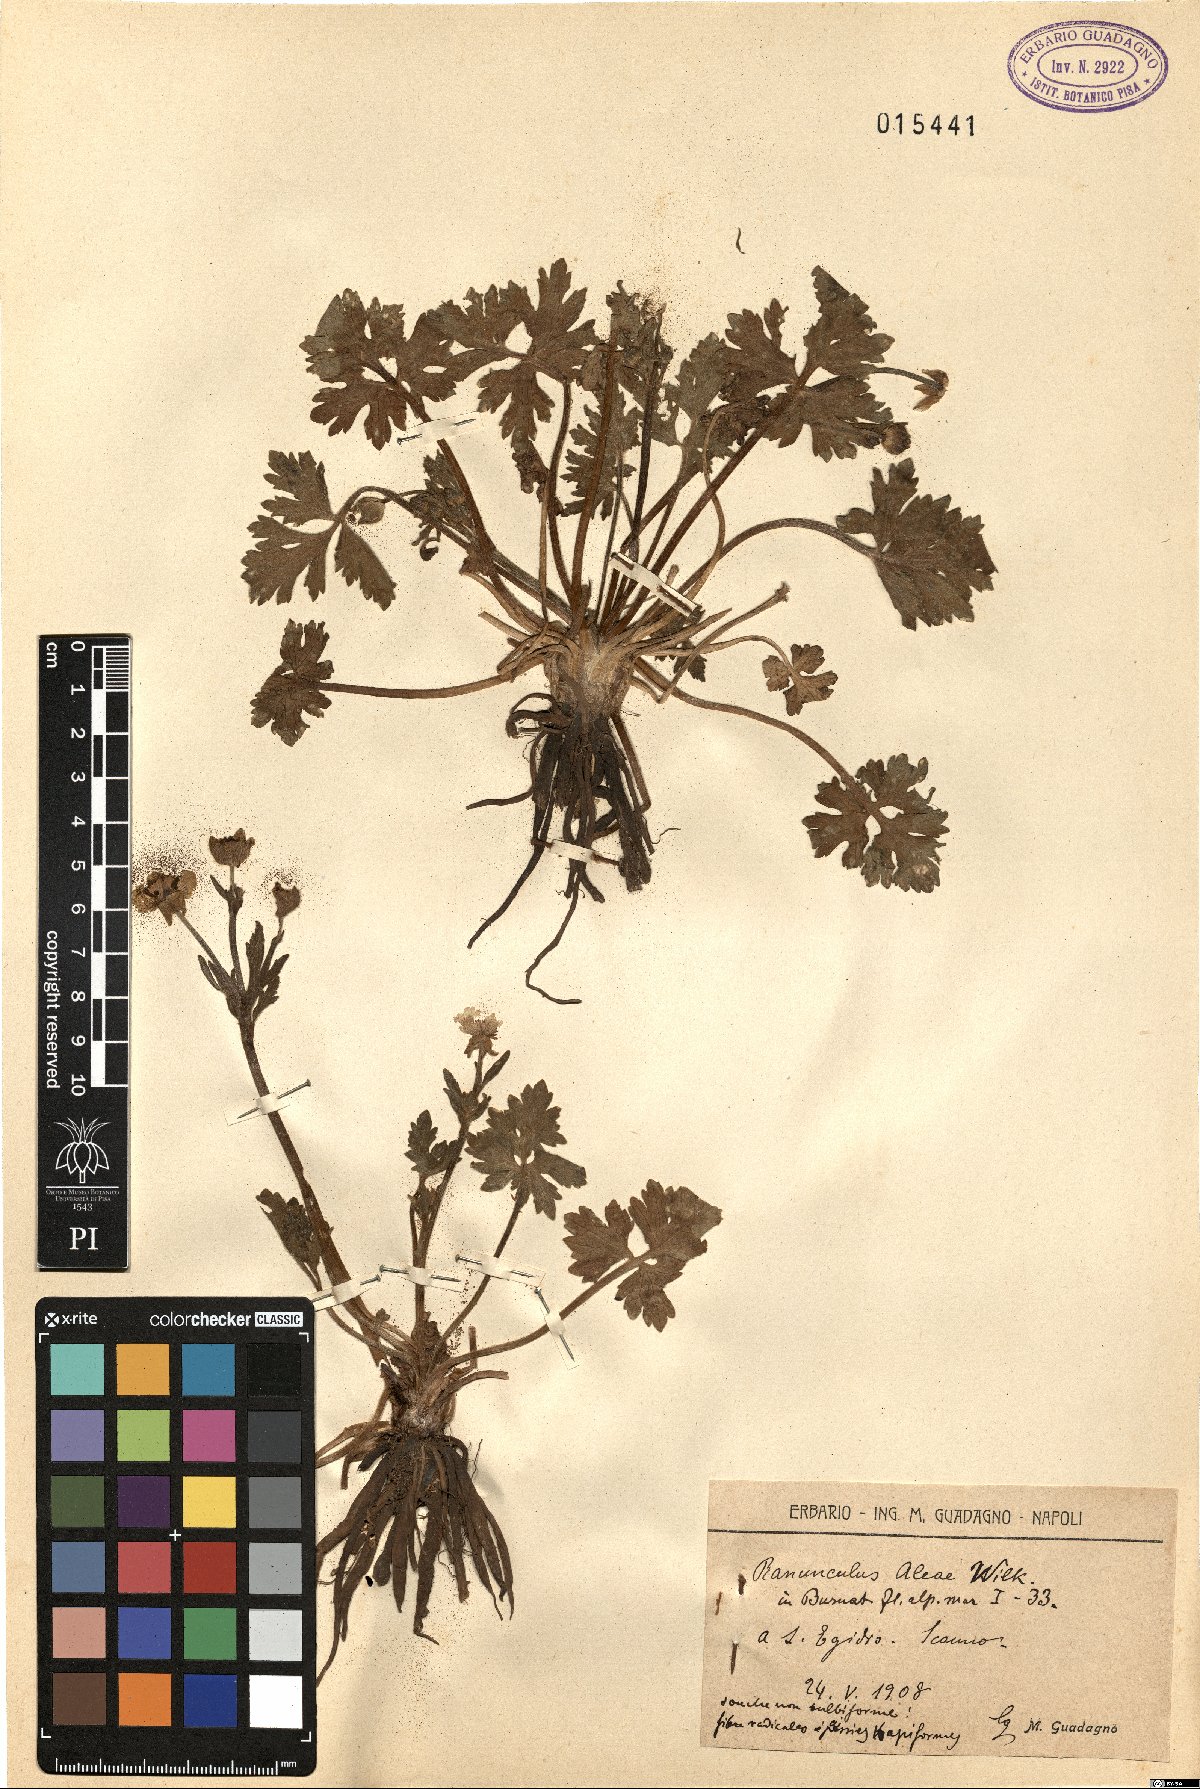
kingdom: Plantae
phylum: Tracheophyta
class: Magnoliopsida
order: Ranunculales
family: Ranunculaceae
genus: Ranunculus
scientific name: Ranunculus neapolitanus
